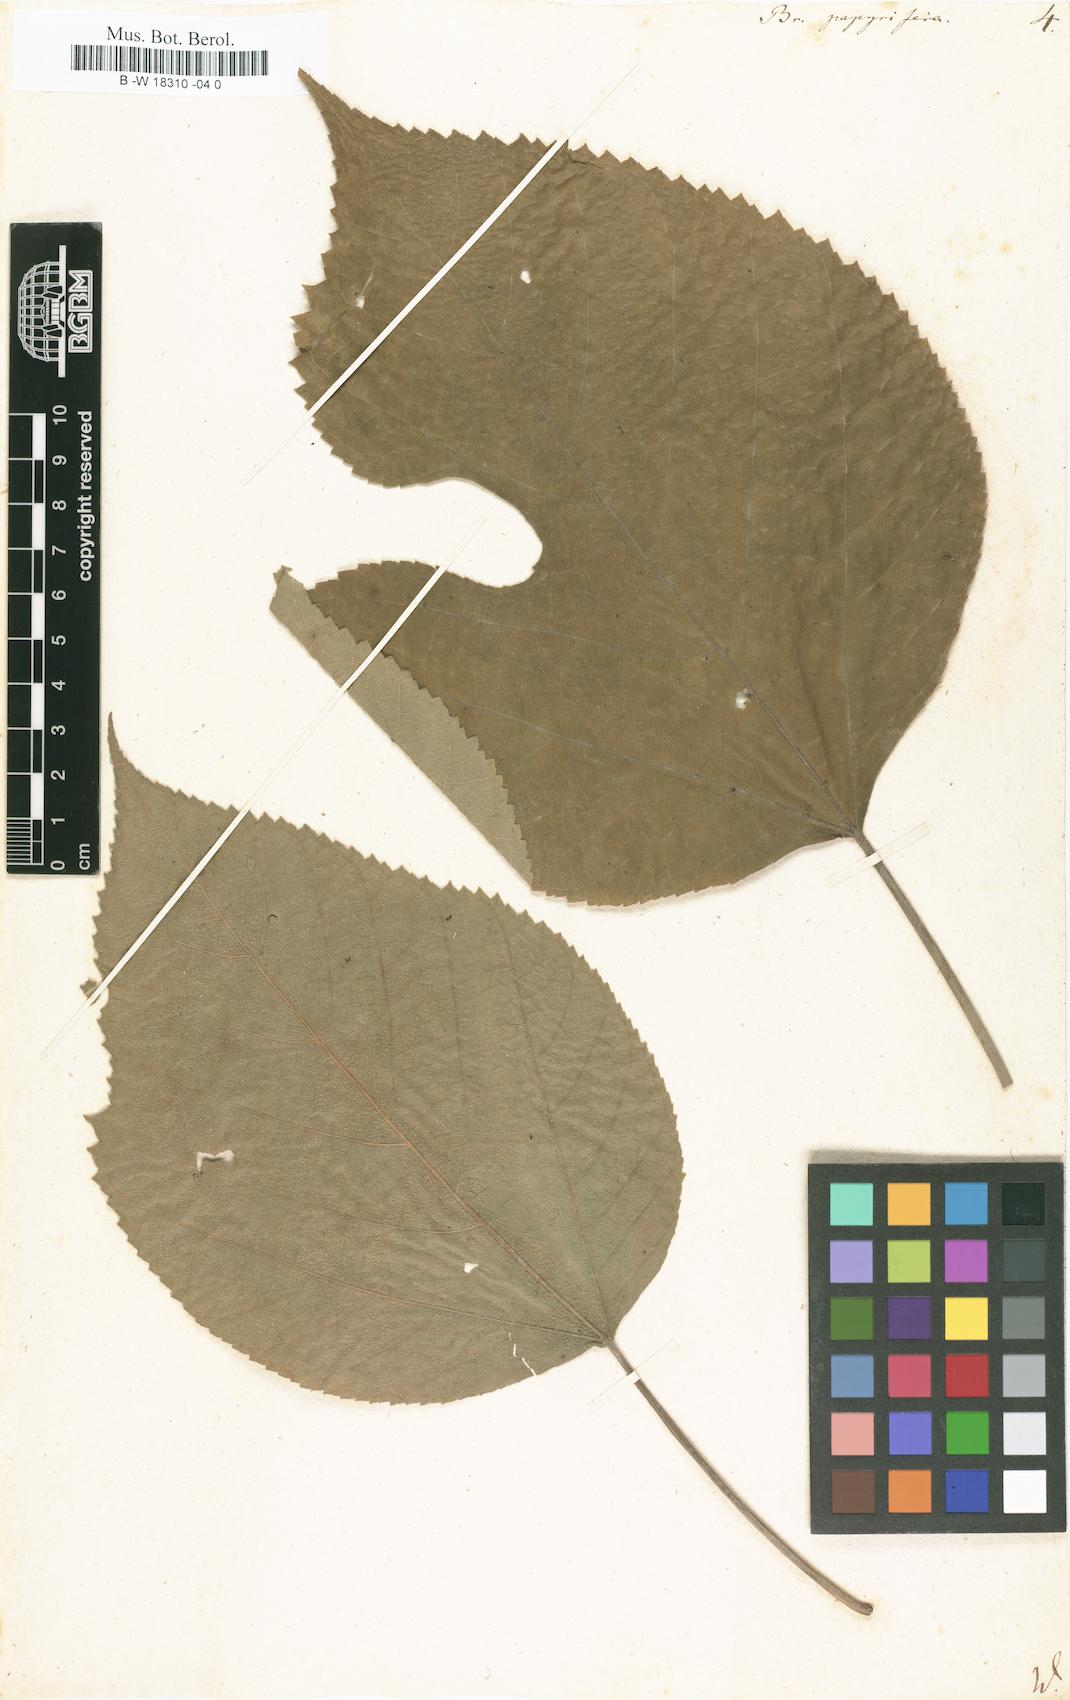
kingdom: Plantae
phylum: Tracheophyta
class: Magnoliopsida
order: Rosales
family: Moraceae
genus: Broussonetia
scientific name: Broussonetia papyrifera
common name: Paper mulberry
